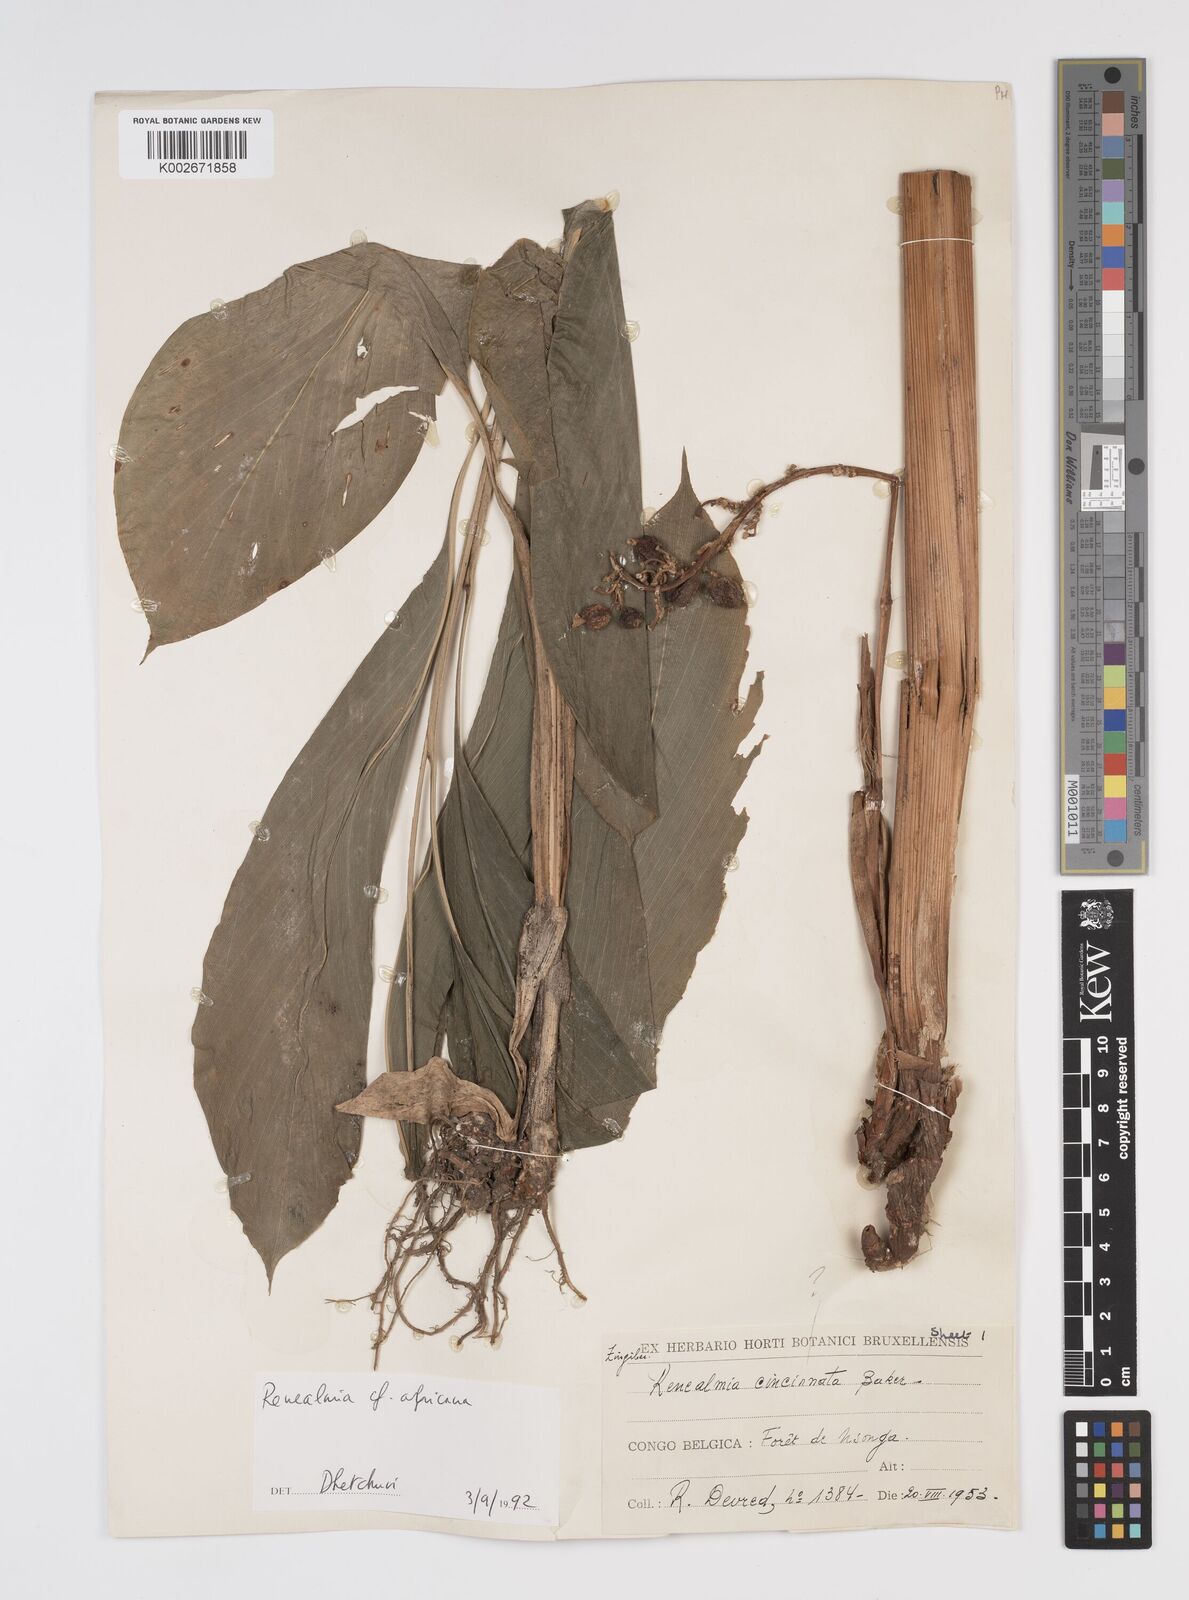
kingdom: Plantae
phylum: Tracheophyta
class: Liliopsida
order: Zingiberales
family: Zingiberaceae
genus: Renealmia
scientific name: Renealmia cincinnata
